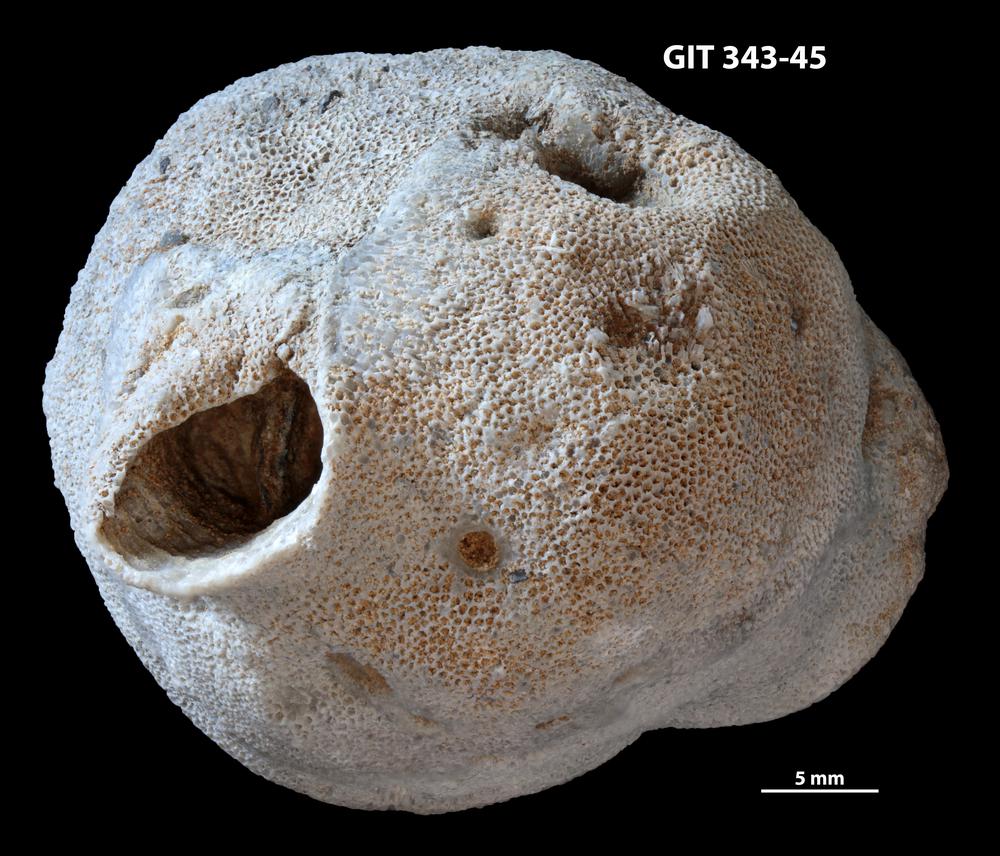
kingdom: Animalia
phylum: Bryozoa
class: Stenolaemata
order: Trepostomatida
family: Diplotrypidae
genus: Diplotrypa
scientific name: Diplotrypa bicornis
